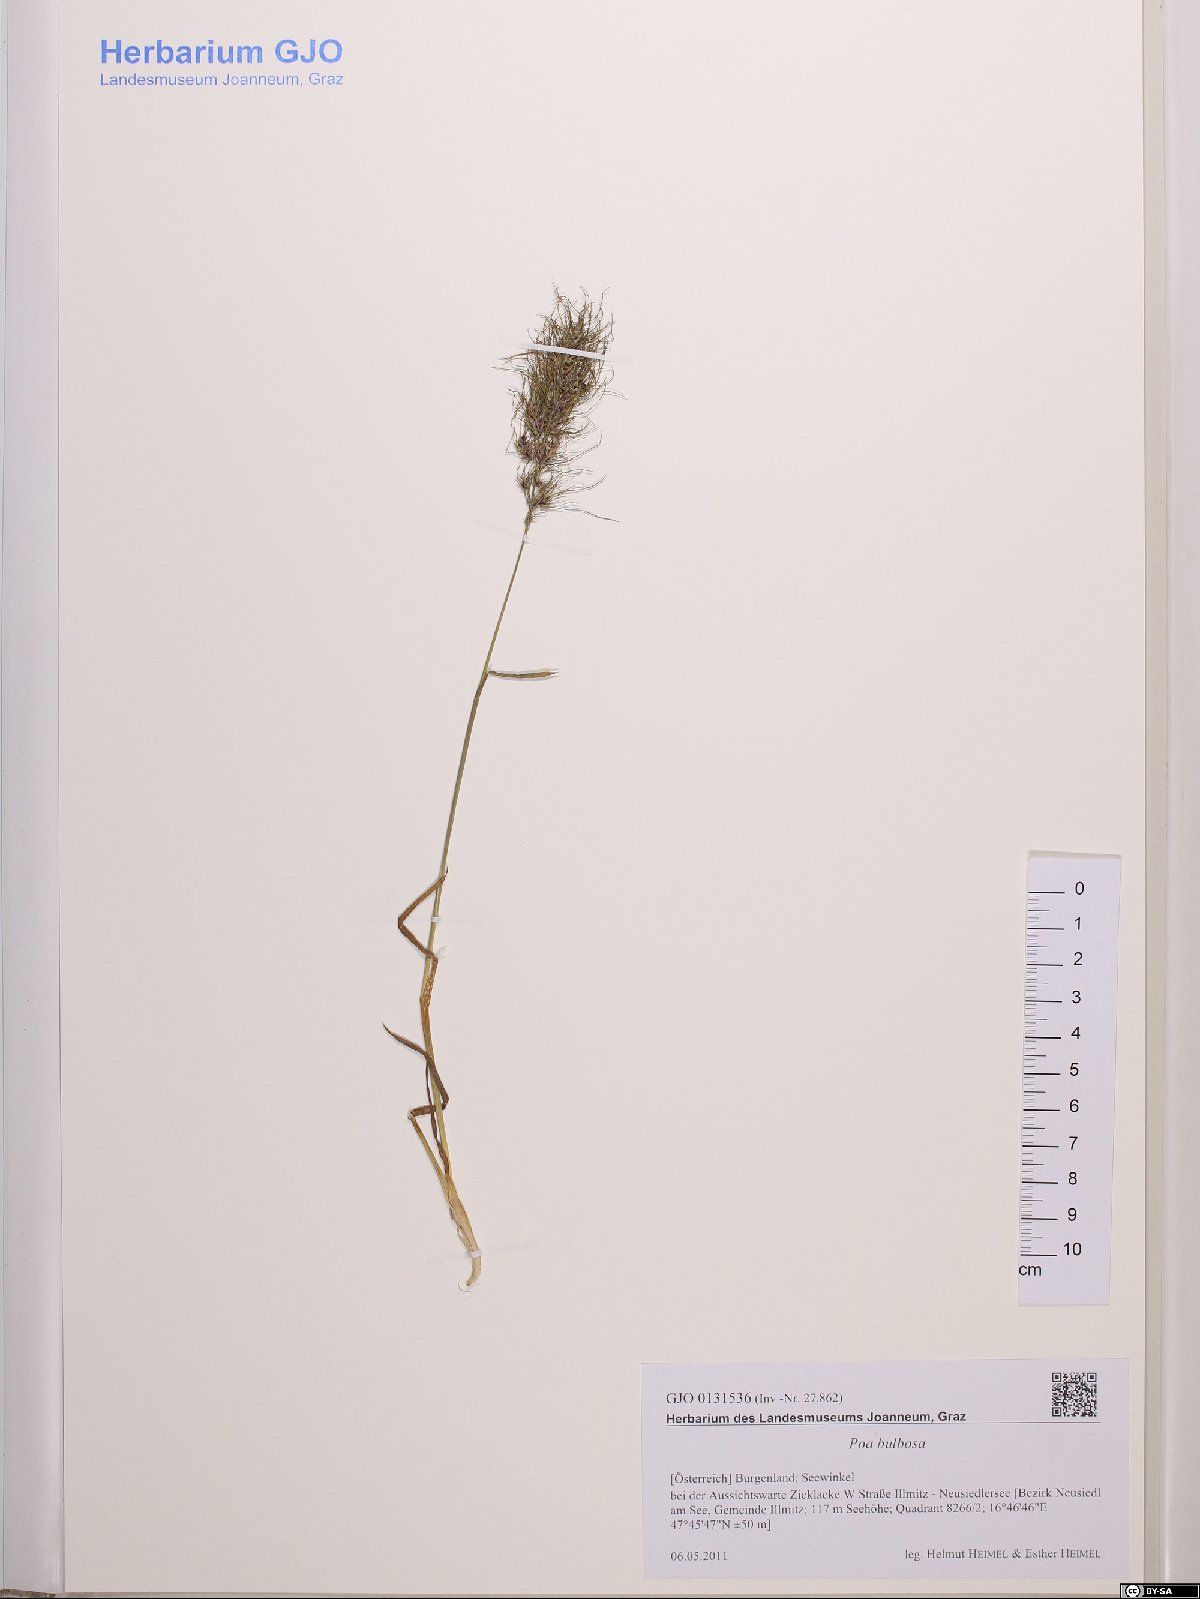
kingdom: Plantae
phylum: Tracheophyta
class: Liliopsida
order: Poales
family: Poaceae
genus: Poa
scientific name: Poa bulbosa
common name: Bulbous bluegrass
